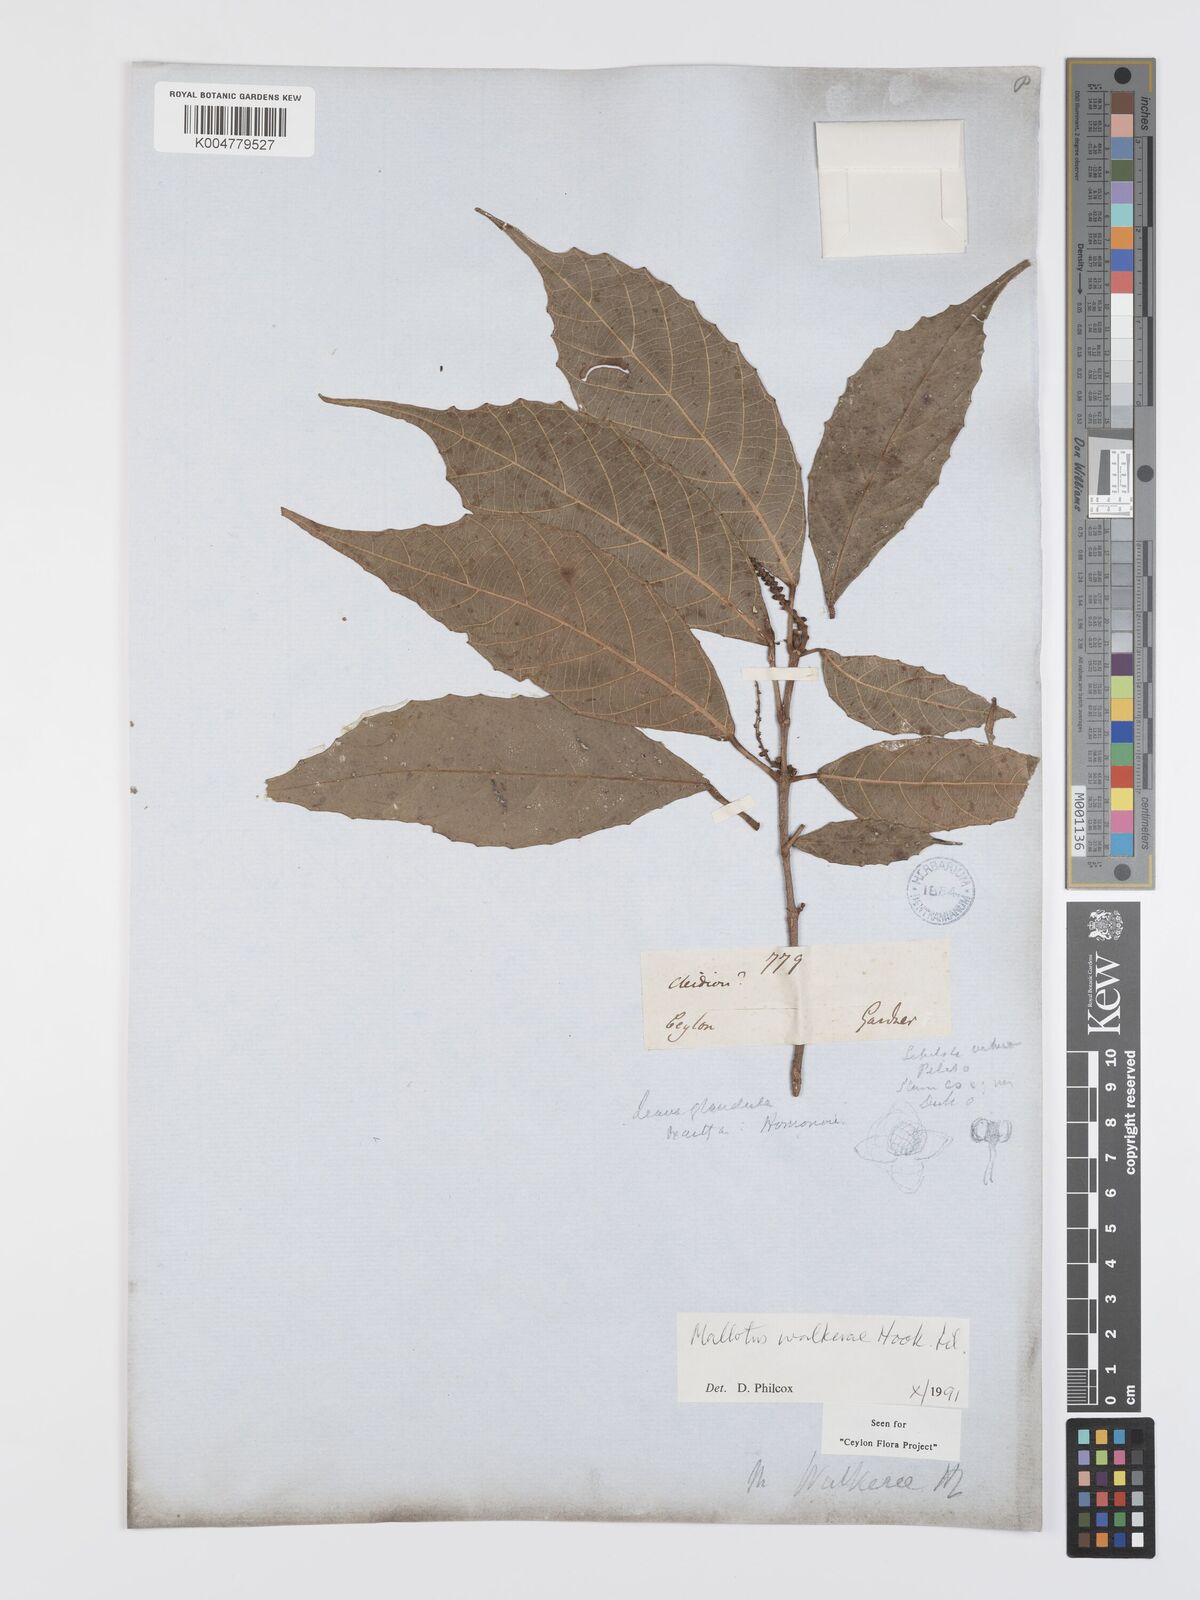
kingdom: Plantae
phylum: Tracheophyta
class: Magnoliopsida
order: Malpighiales
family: Euphorbiaceae
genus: Mallotus
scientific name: Mallotus resinosus
